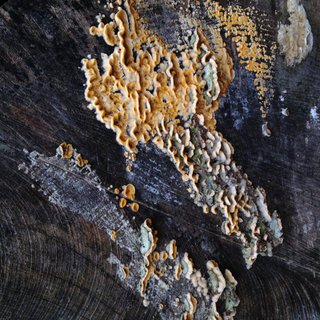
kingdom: Fungi
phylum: Basidiomycota
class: Agaricomycetes
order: Russulales
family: Stereaceae
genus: Stereum
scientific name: Stereum hirsutum
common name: håret lædersvamp
